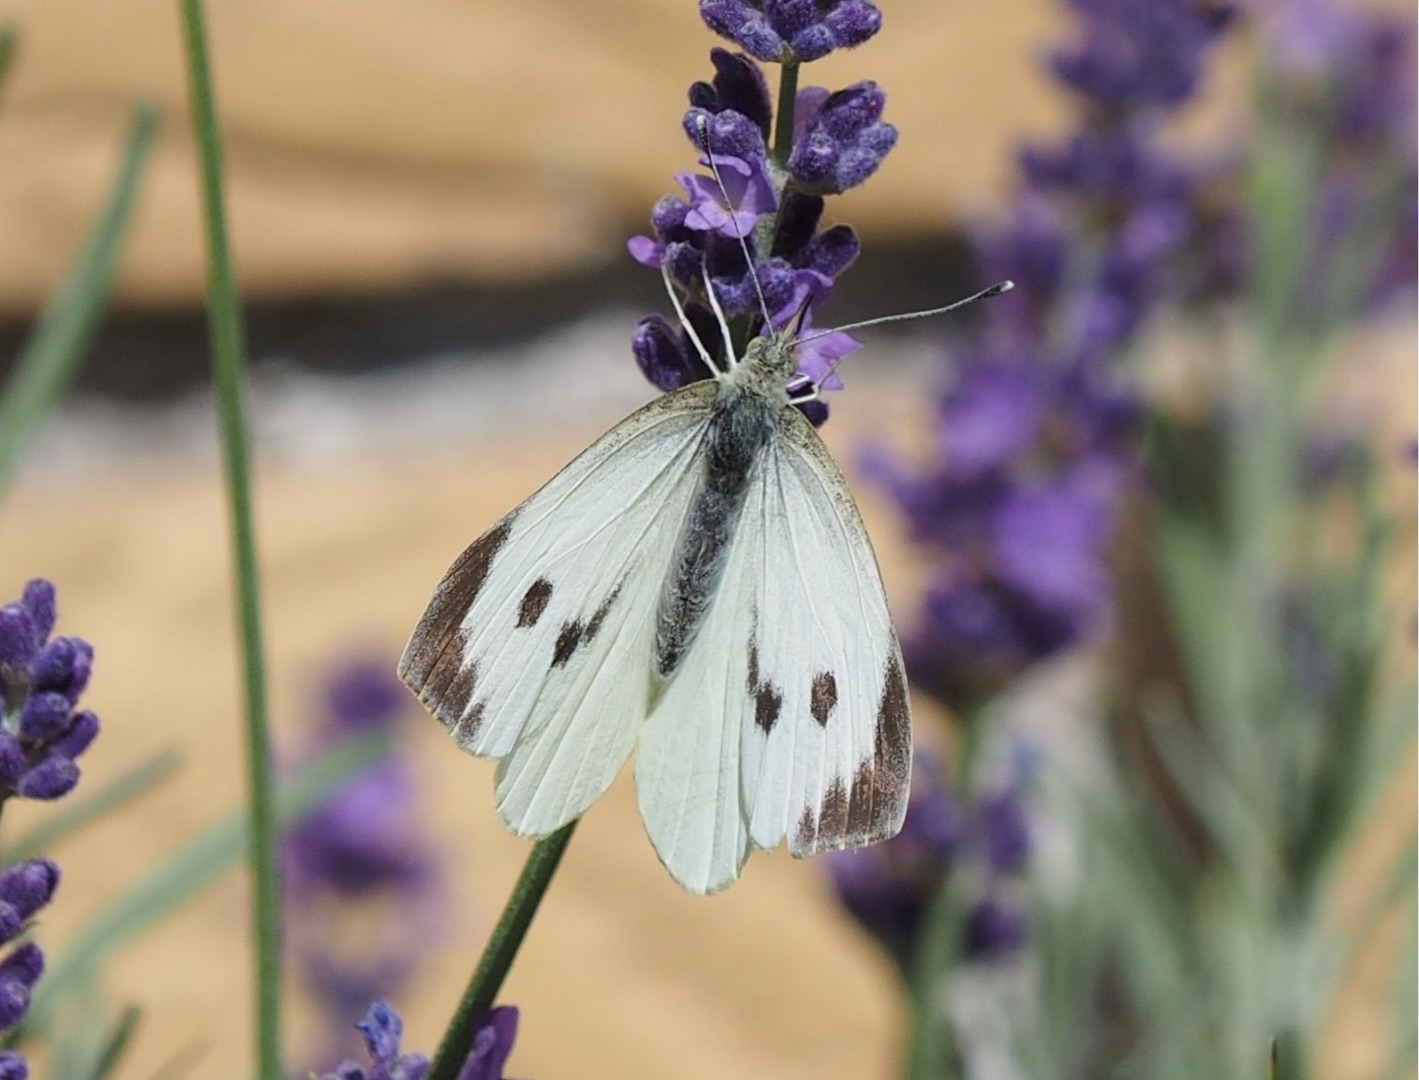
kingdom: Animalia
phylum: Arthropoda
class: Insecta
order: Lepidoptera
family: Pieridae
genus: Pieris
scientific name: Pieris brassicae
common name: Stor kålsommerfugl
